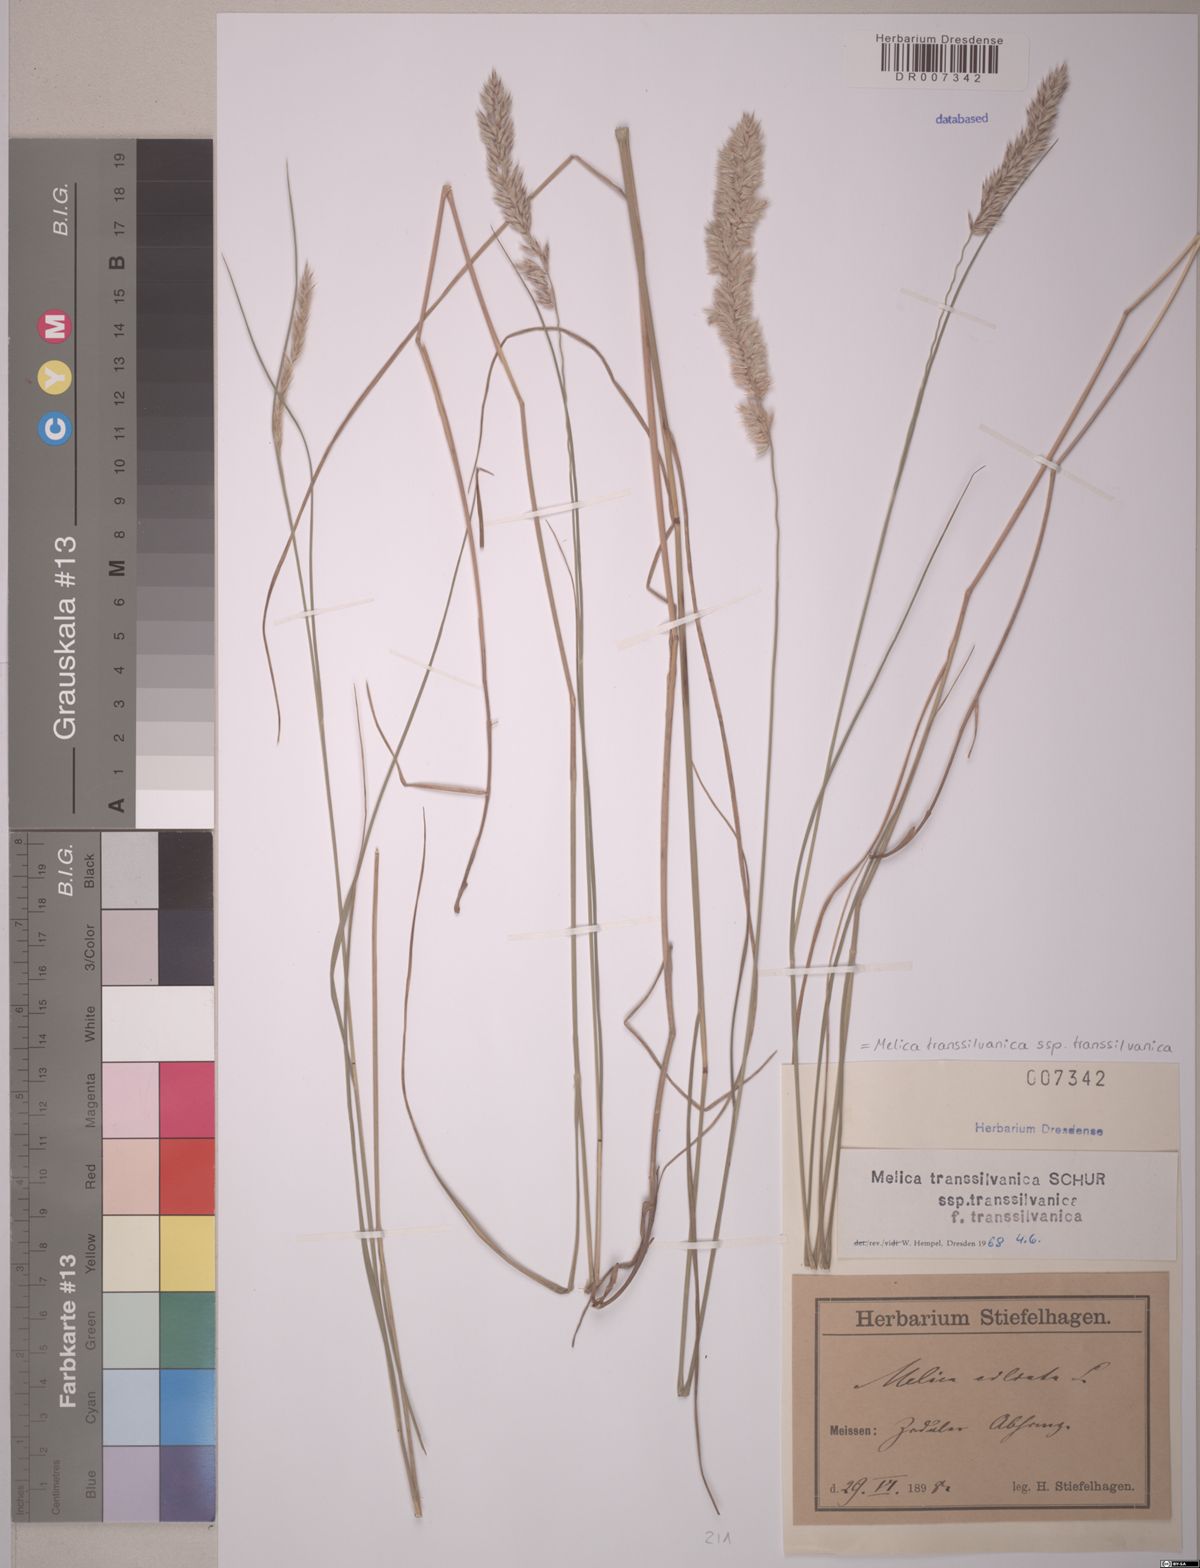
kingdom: Plantae
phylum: Tracheophyta
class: Liliopsida
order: Poales
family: Poaceae
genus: Melica
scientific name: Melica transsilvanica
